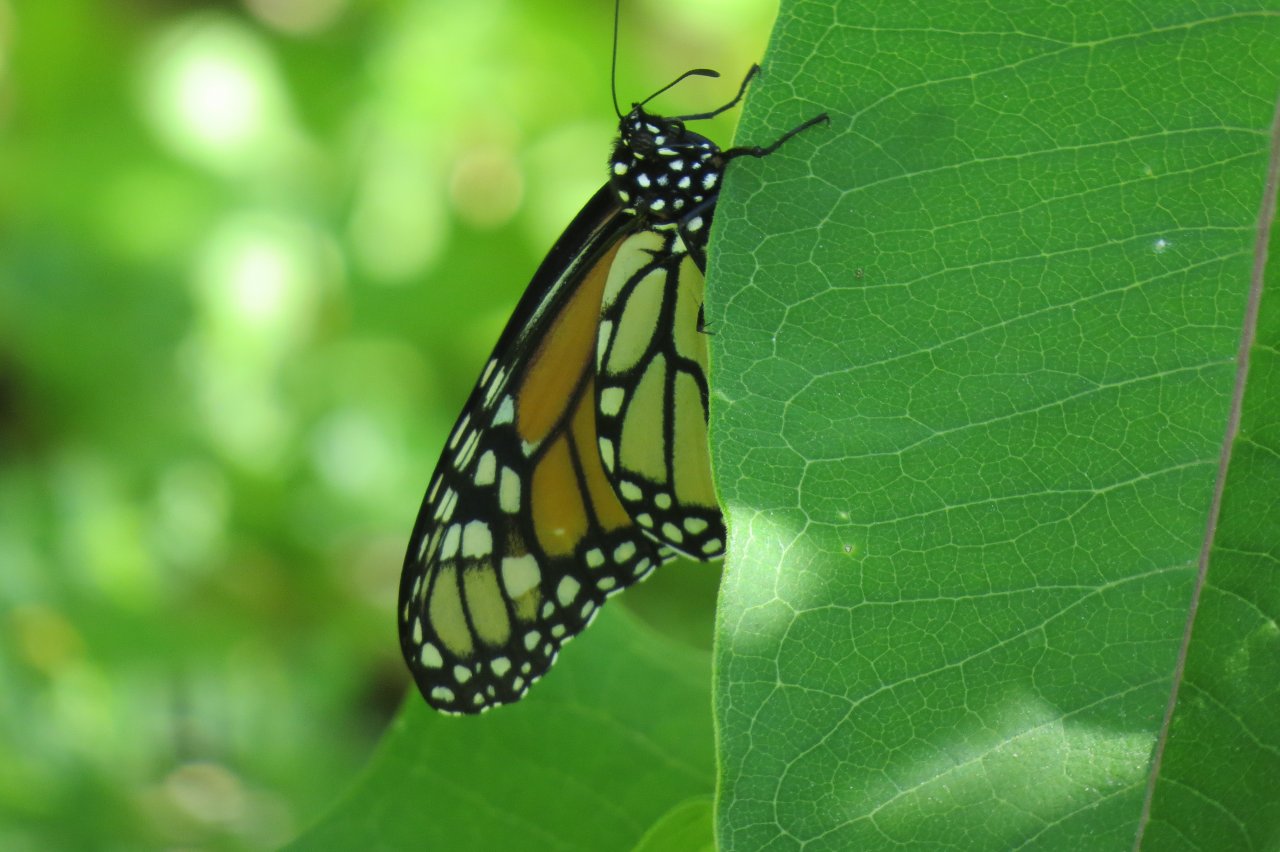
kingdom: Animalia
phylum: Arthropoda
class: Insecta
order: Lepidoptera
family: Nymphalidae
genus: Danaus
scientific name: Danaus plexippus
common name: Monarch
